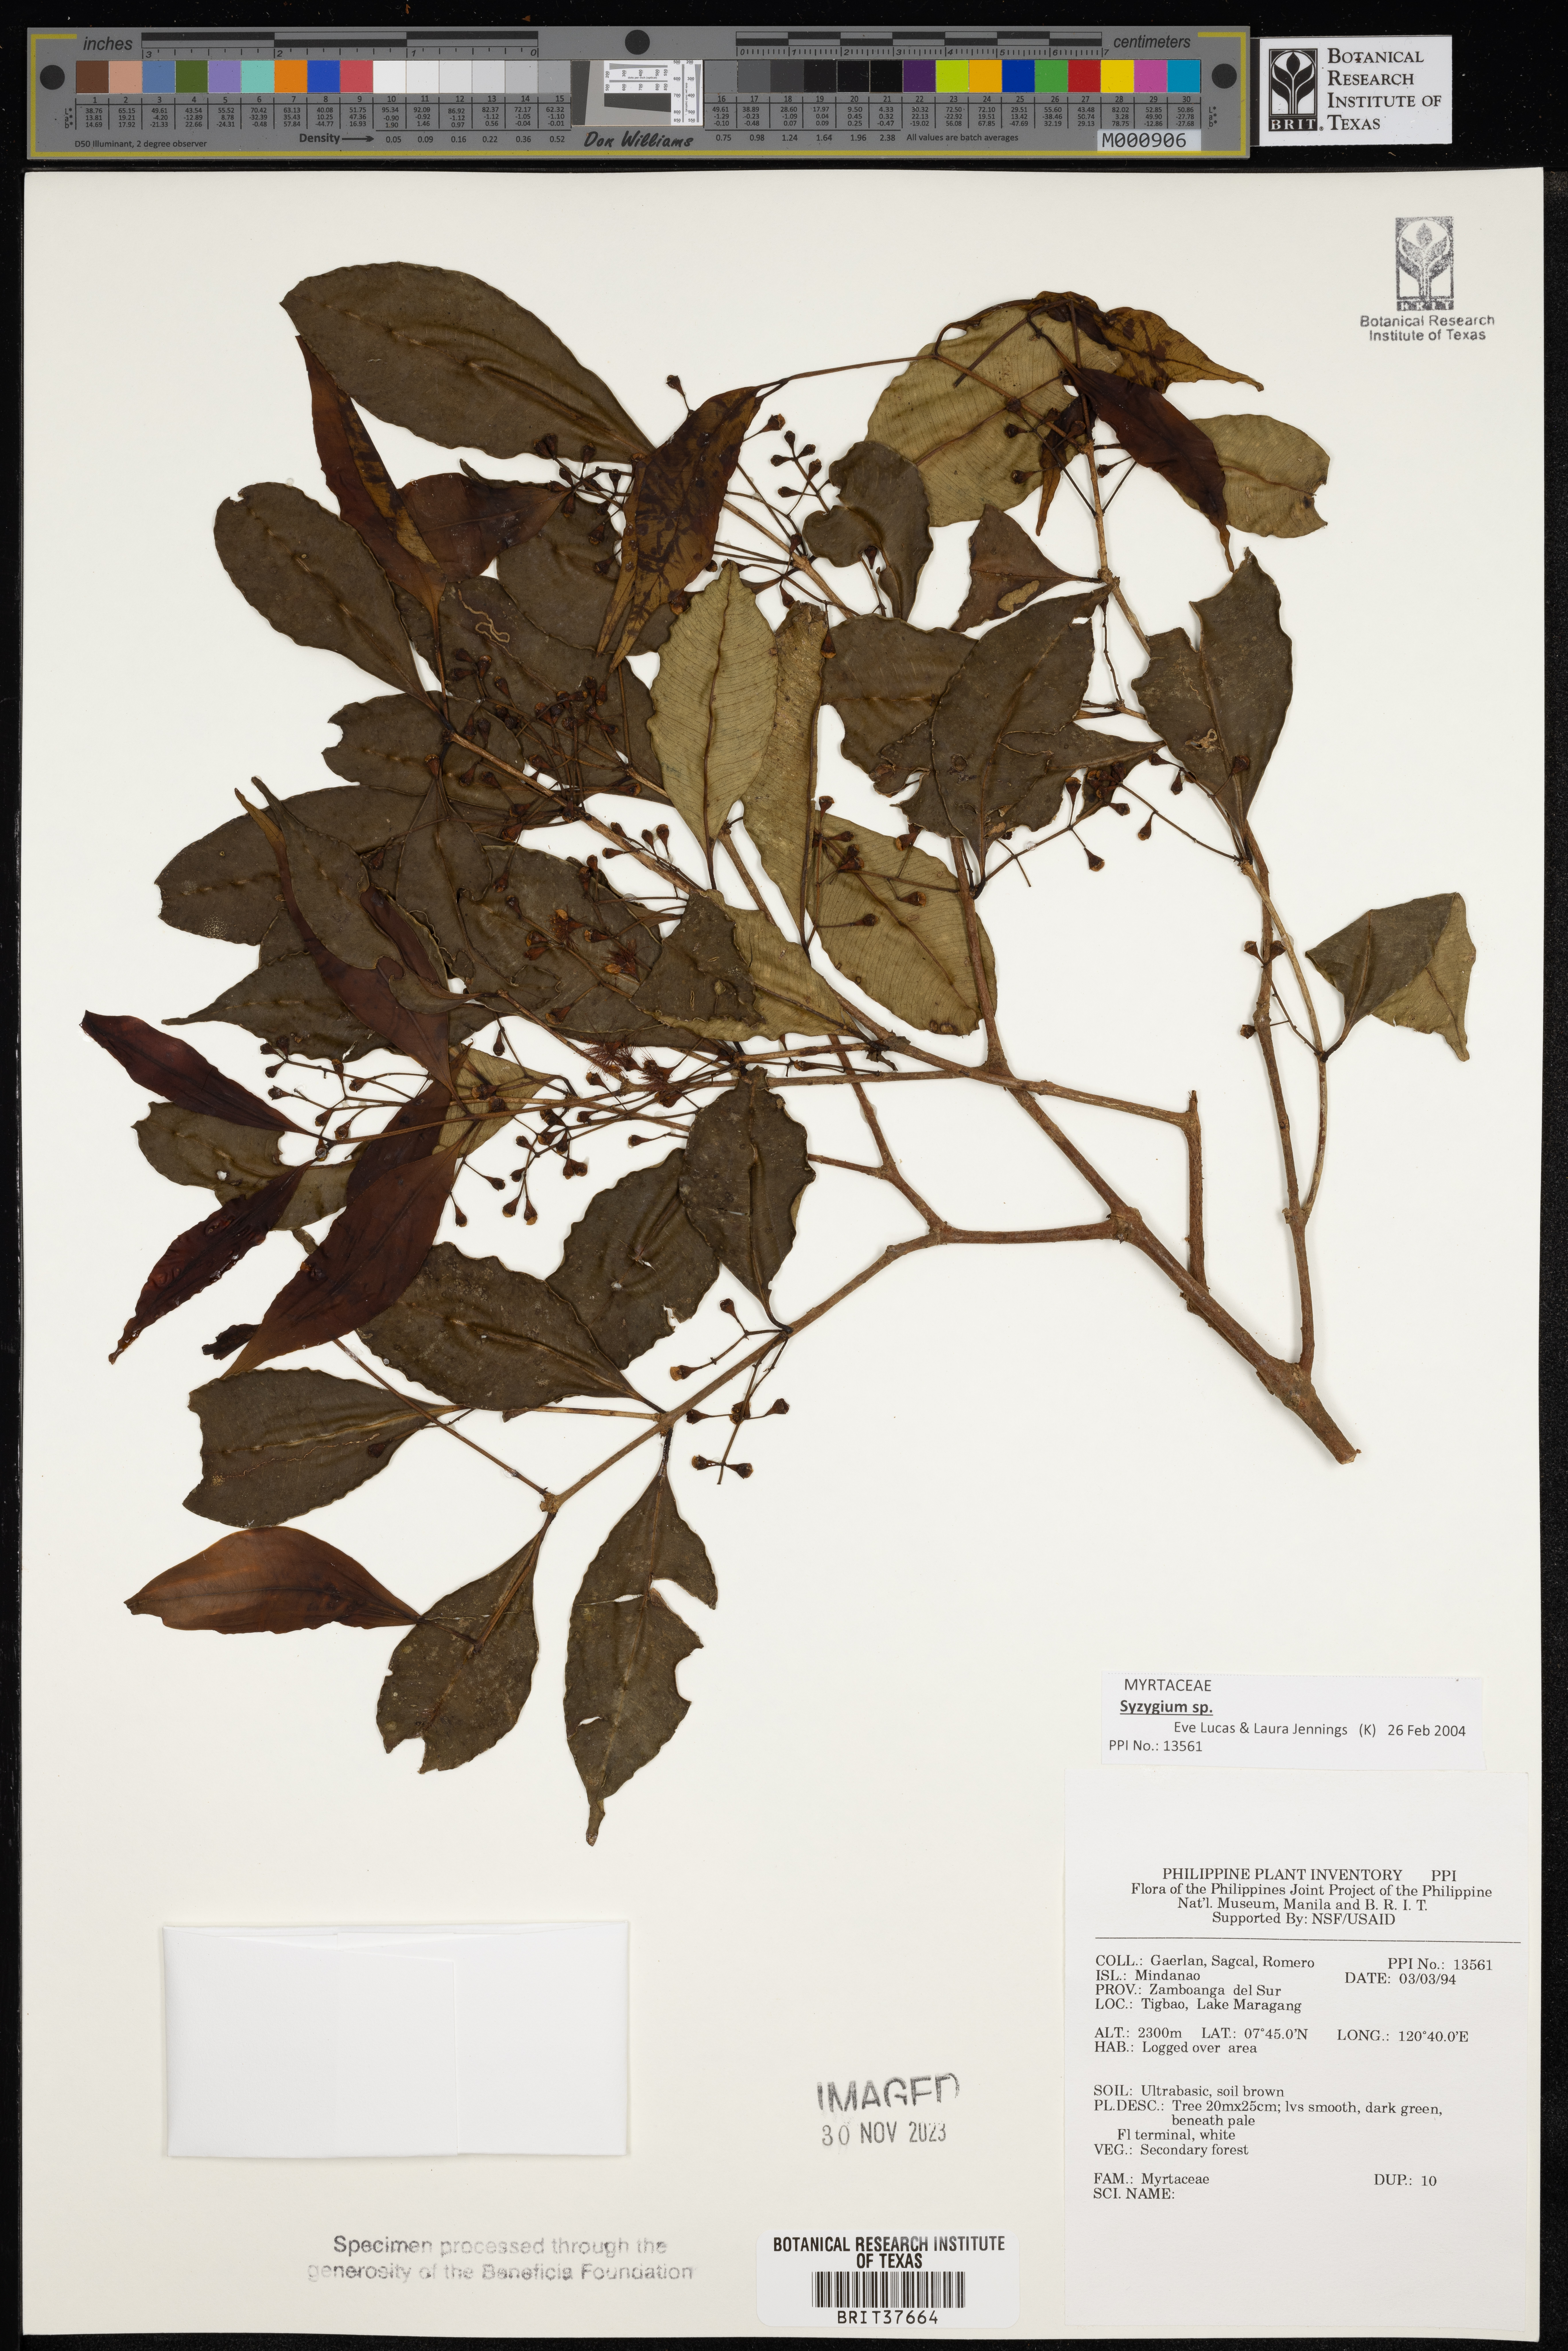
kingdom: Plantae
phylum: Tracheophyta
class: Magnoliopsida
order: Myrtales
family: Myrtaceae
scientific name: Myrtaceae
